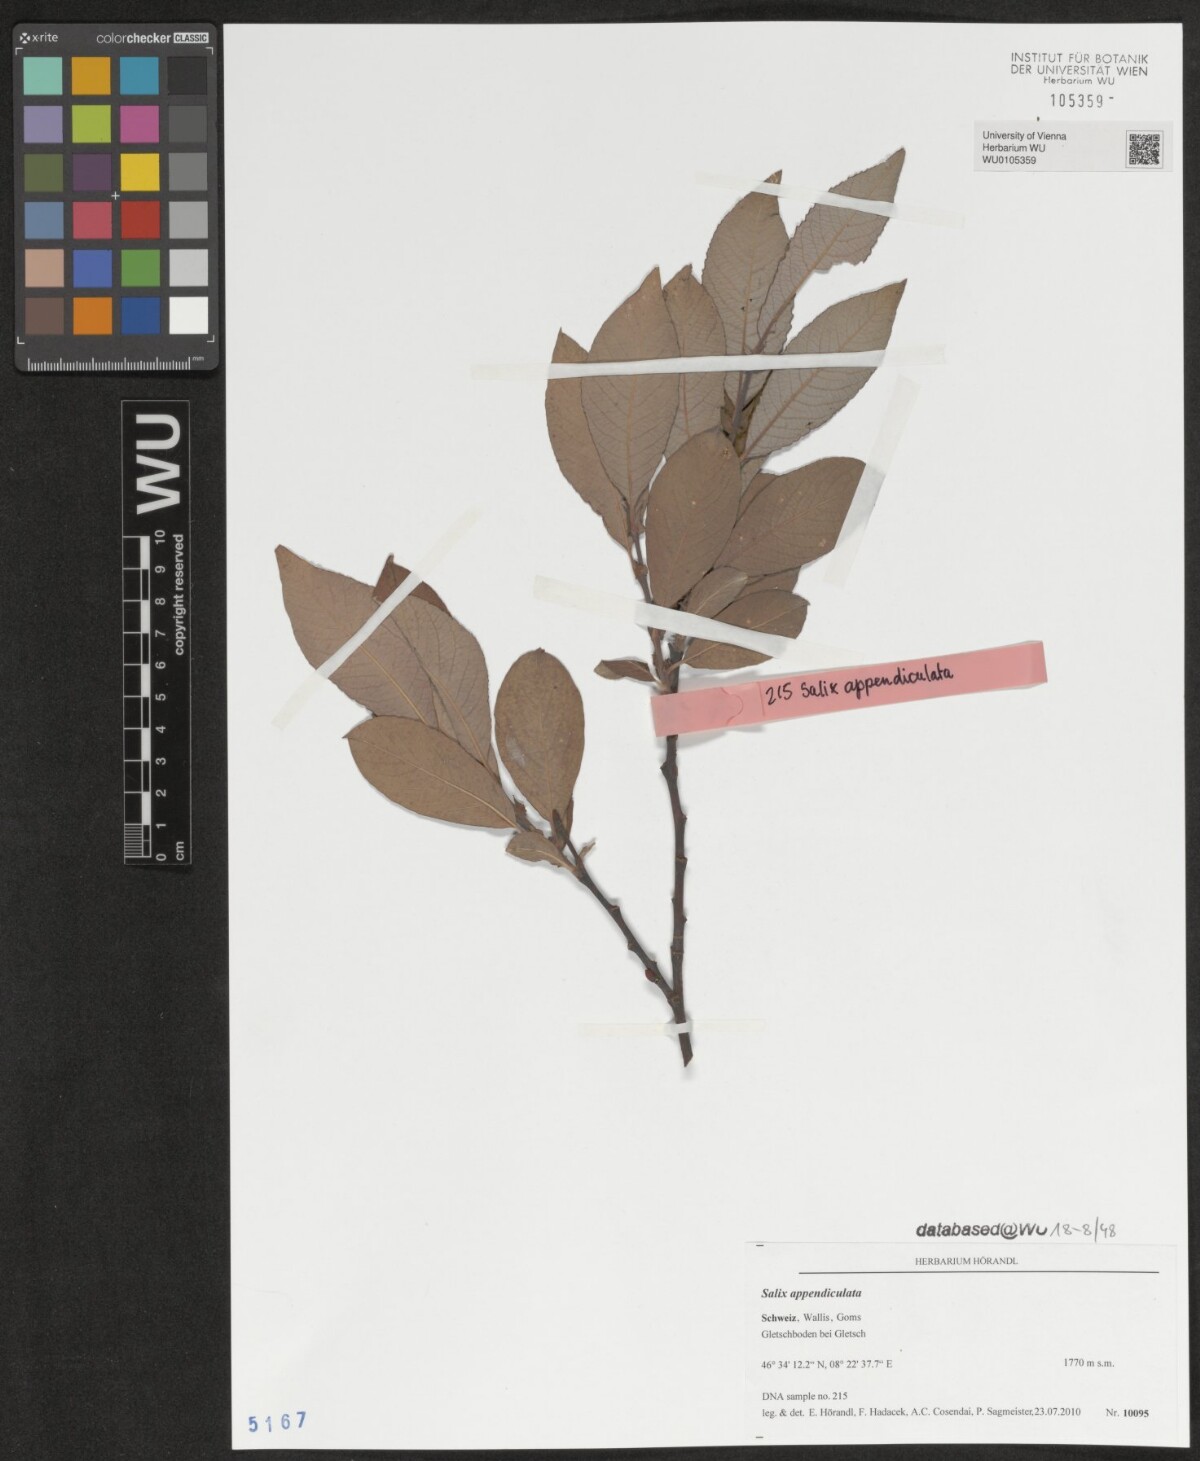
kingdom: Plantae
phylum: Tracheophyta
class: Magnoliopsida
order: Malpighiales
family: Salicaceae
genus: Salix
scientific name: Salix appendiculata
